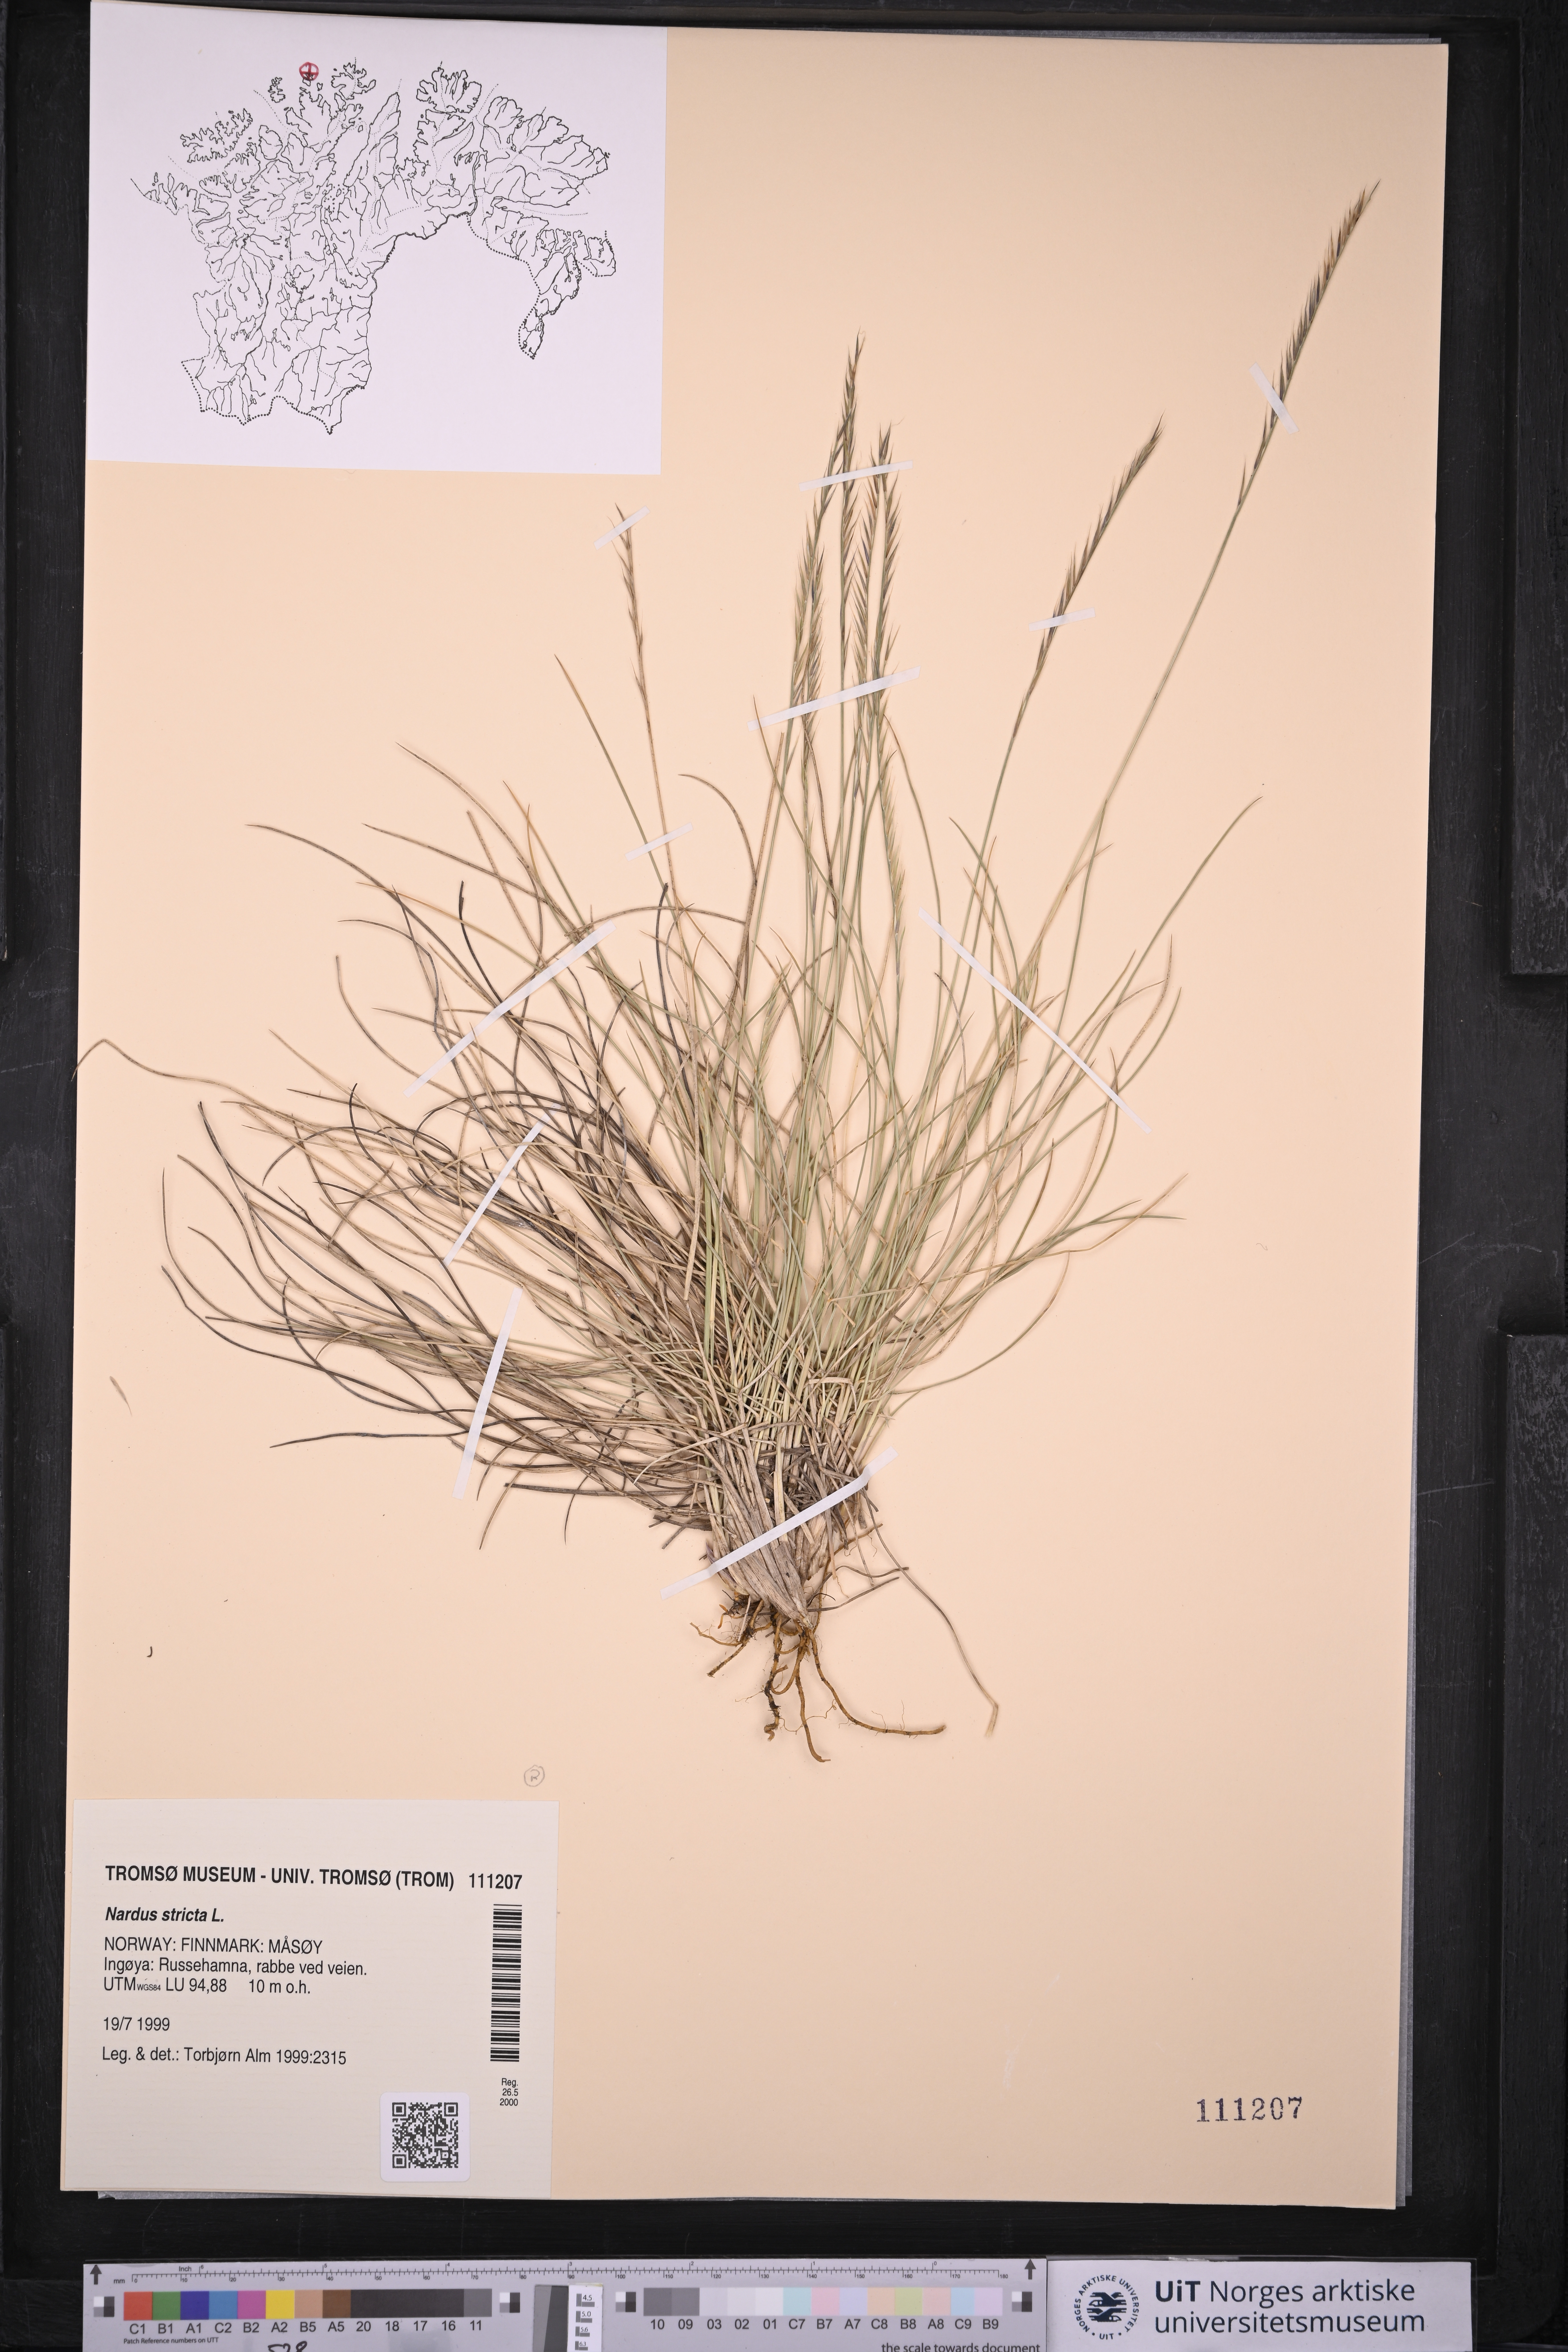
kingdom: Plantae
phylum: Tracheophyta
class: Liliopsida
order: Poales
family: Poaceae
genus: Nardus
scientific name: Nardus stricta
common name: Mat-grass
